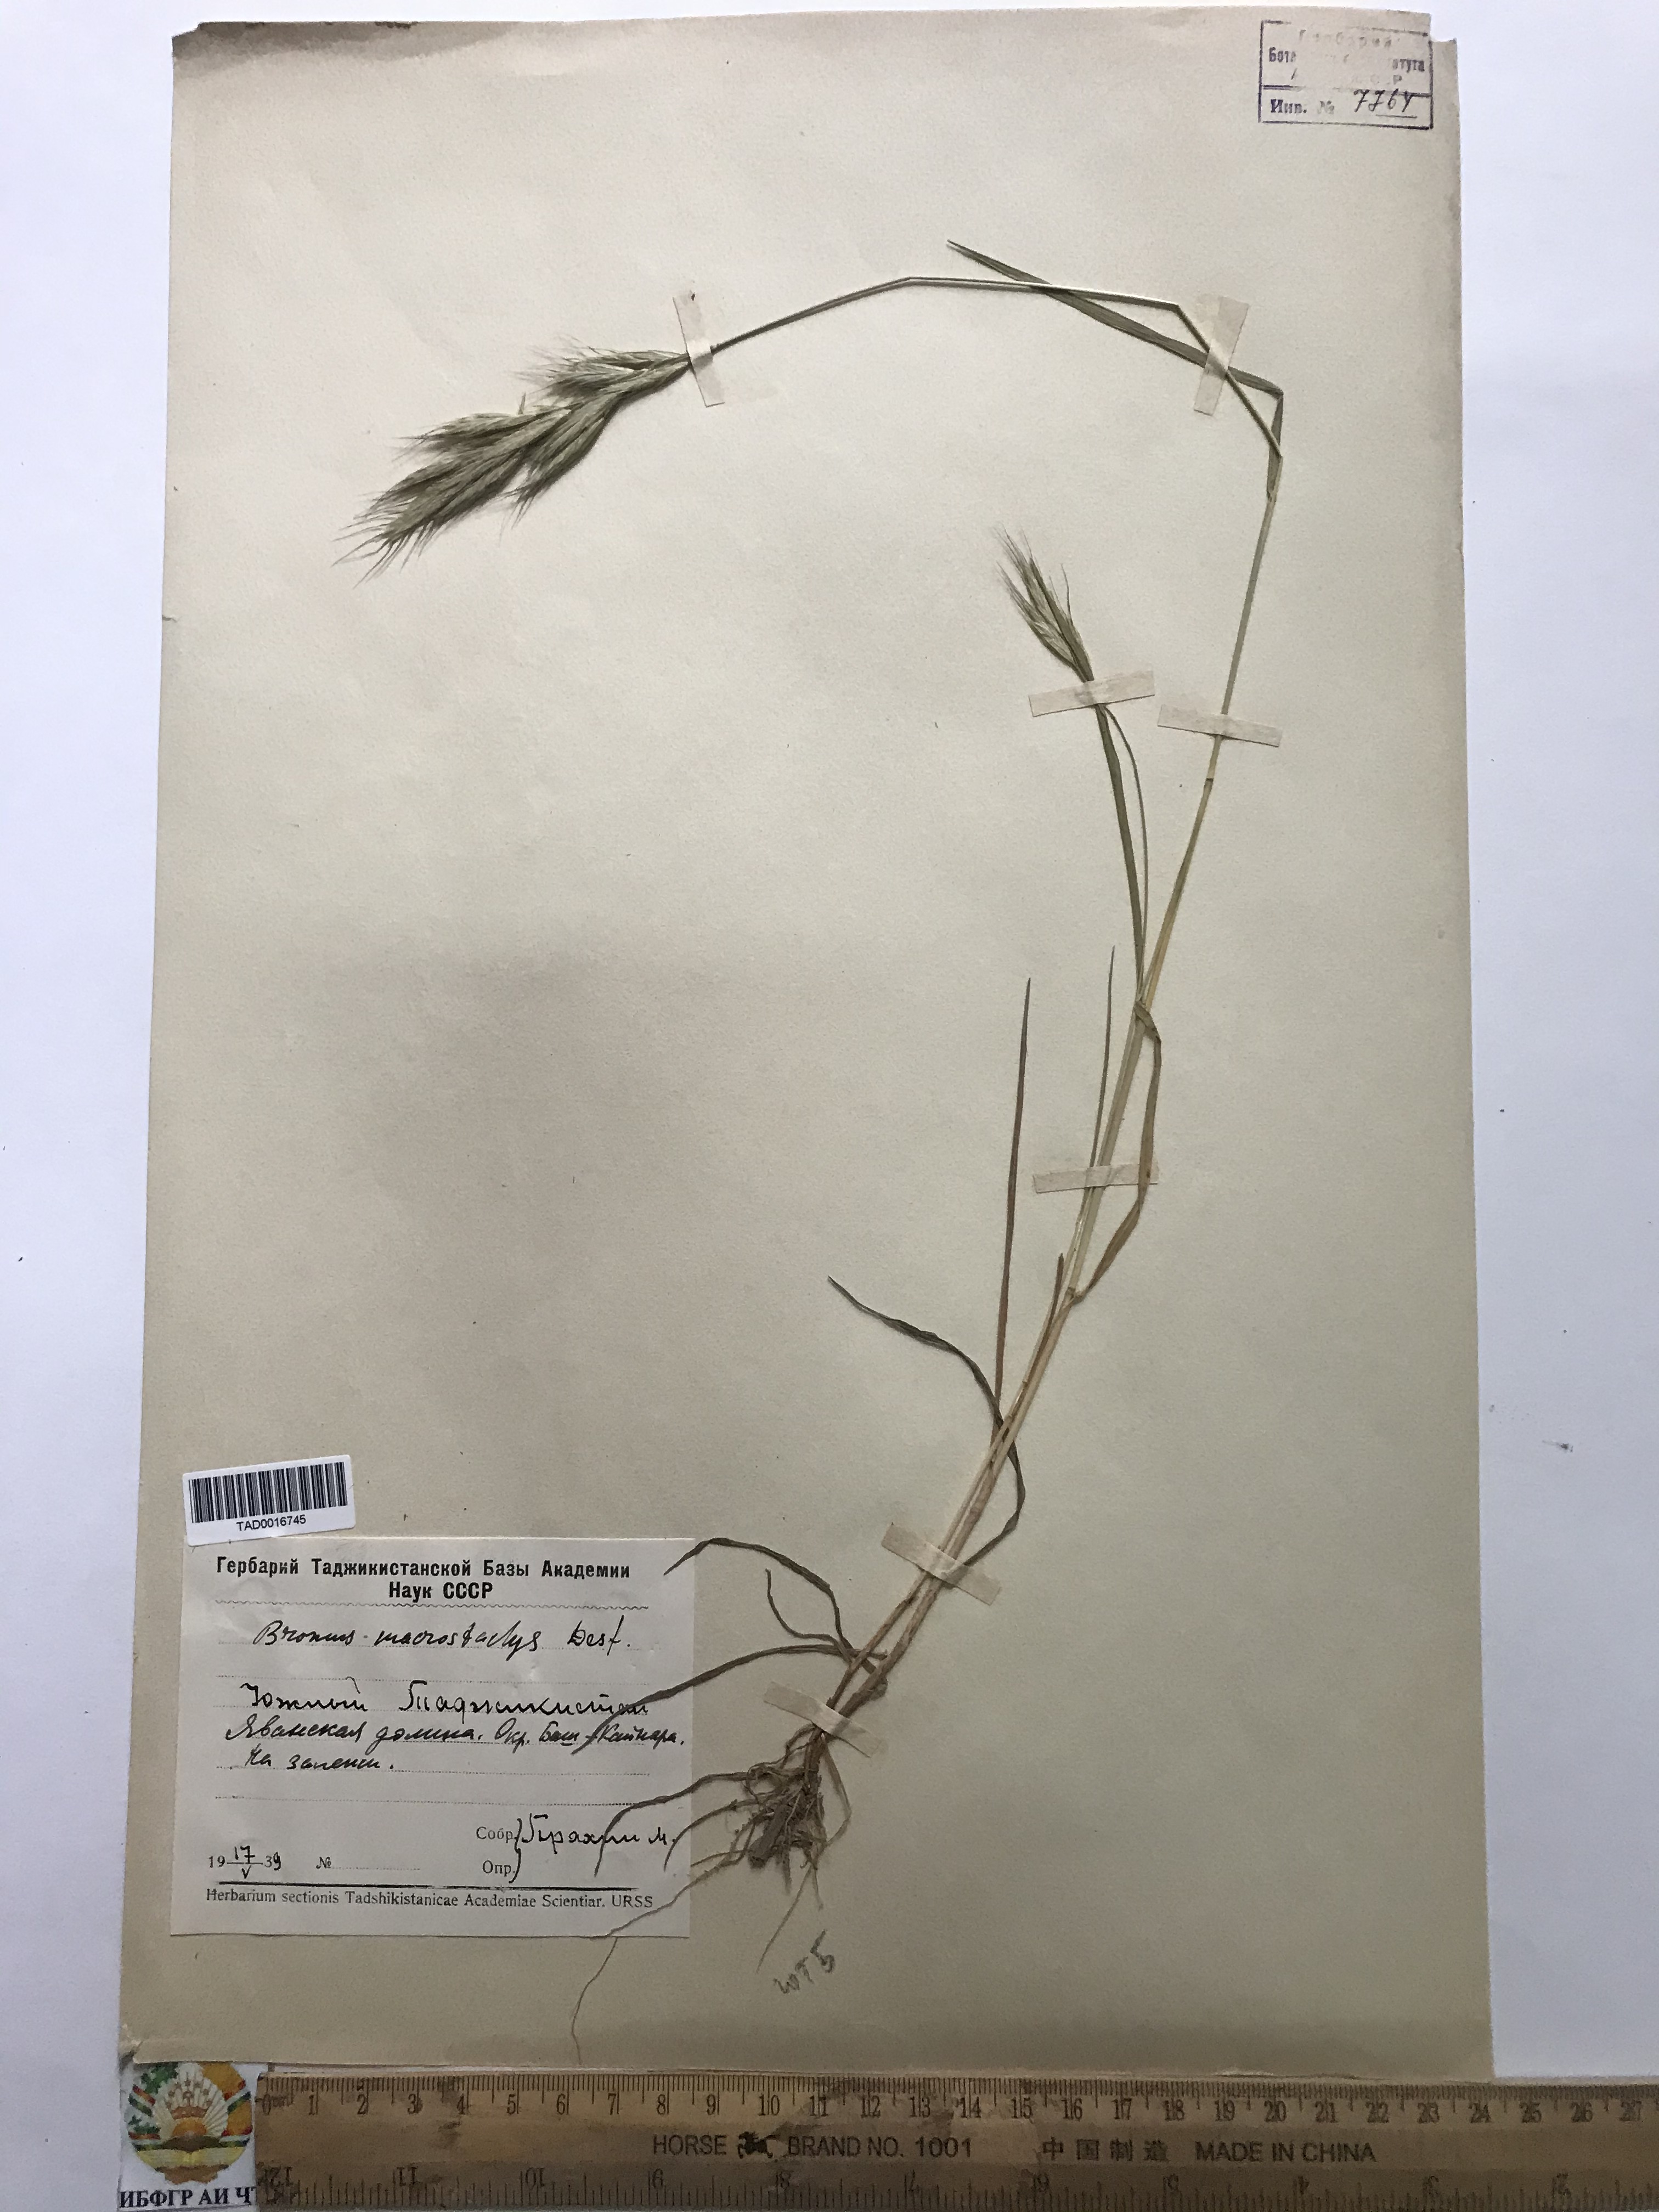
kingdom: Plantae
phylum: Tracheophyta
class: Liliopsida
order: Poales
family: Poaceae
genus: Bromus
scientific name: Bromus lanceolatus
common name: Mediterranean brome
